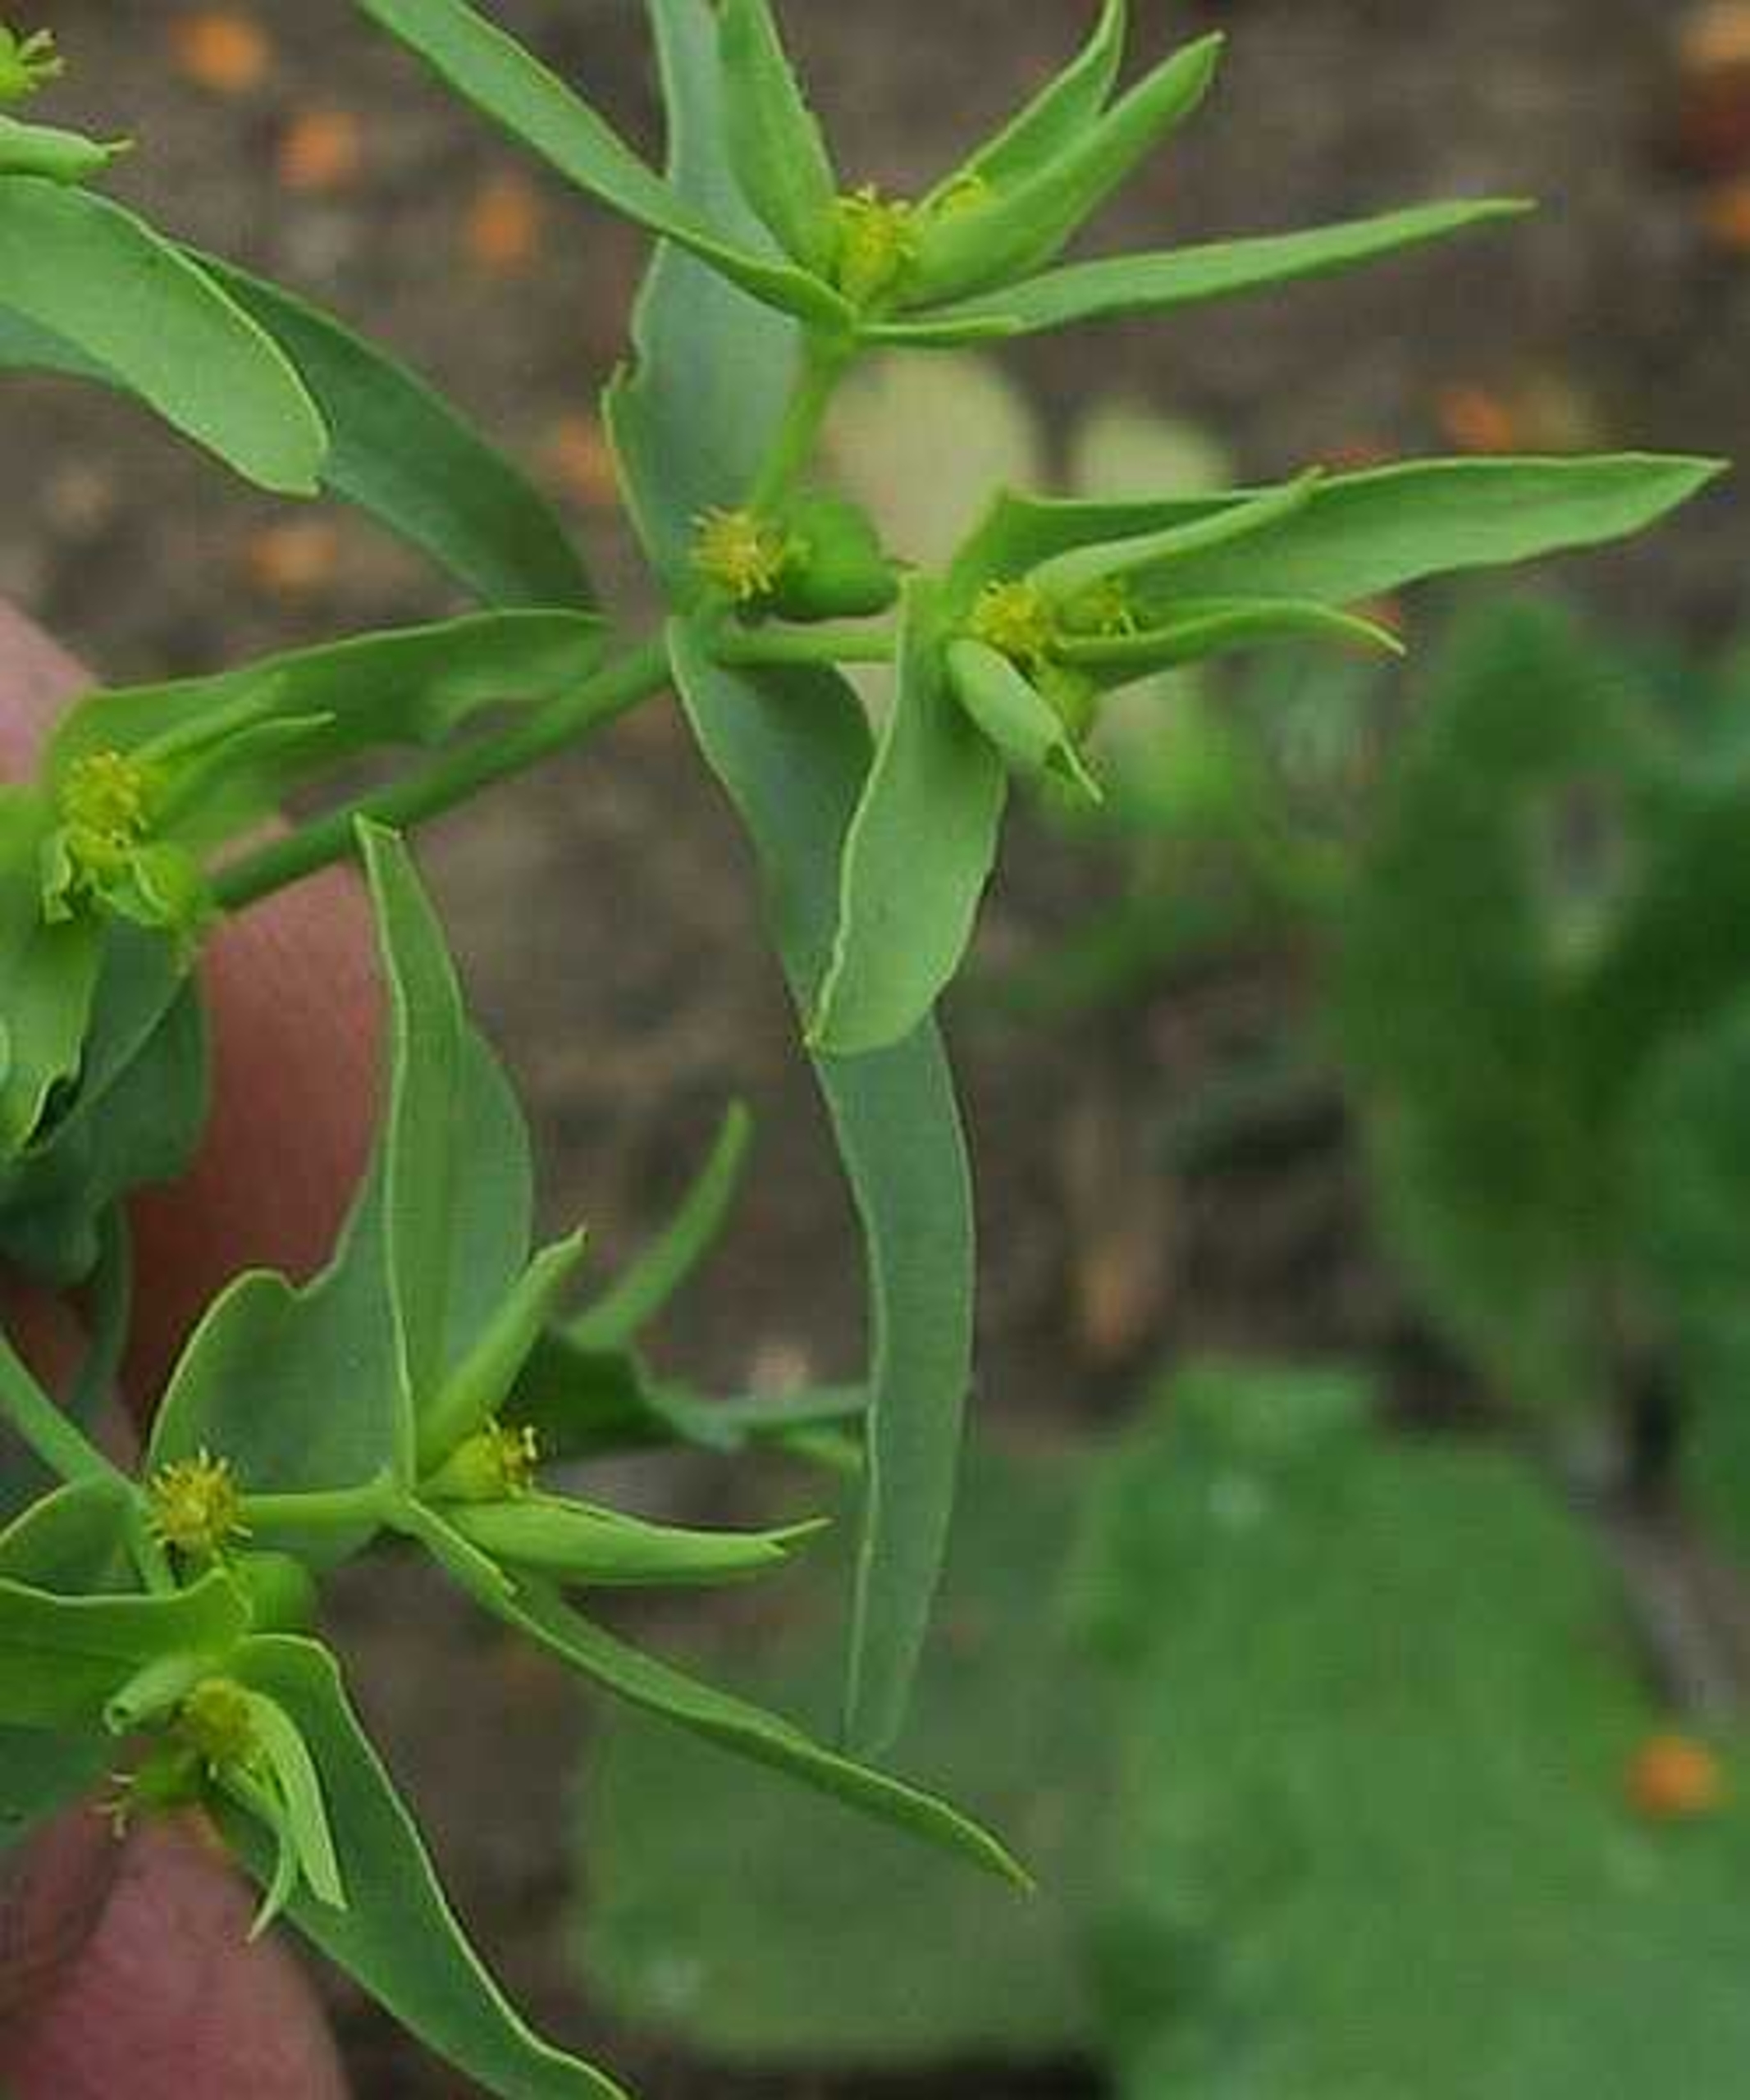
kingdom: Plantae
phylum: Tracheophyta
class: Magnoliopsida
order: Malpighiales
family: Euphorbiaceae
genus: Euphorbia
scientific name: Euphorbia exigua
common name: Liden vortemælk
